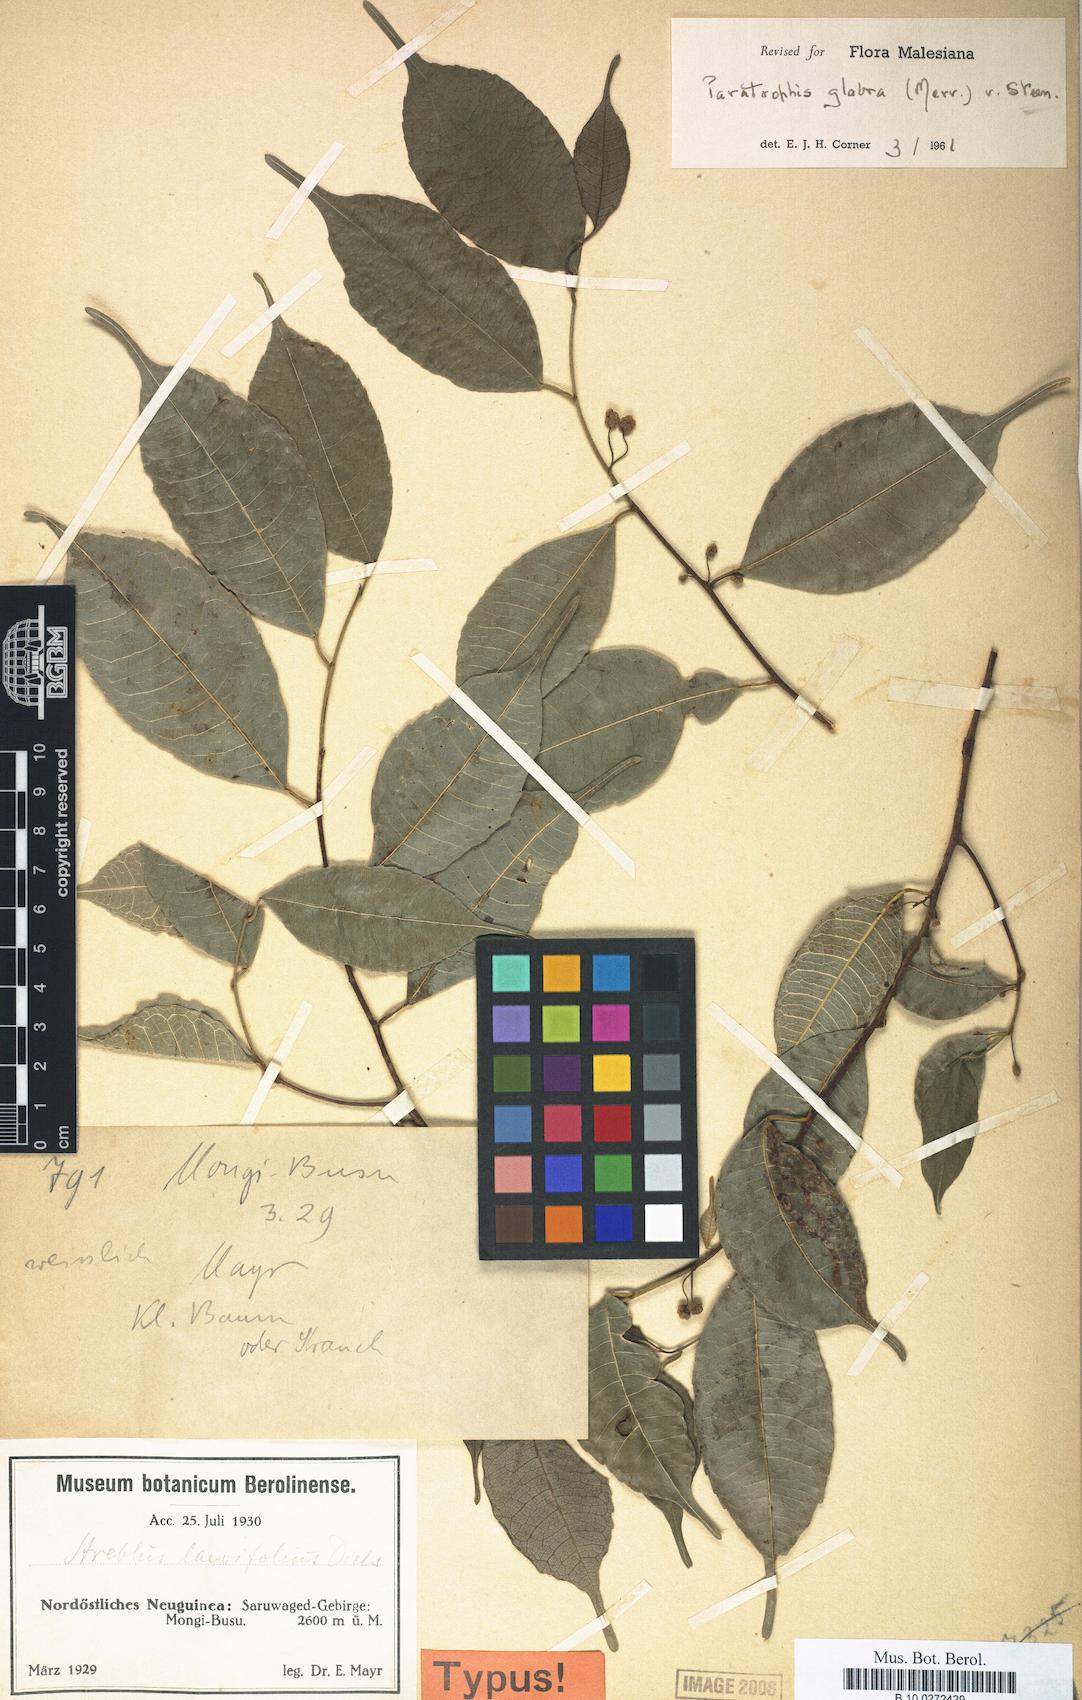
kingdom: Plantae
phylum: Tracheophyta
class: Magnoliopsida
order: Rosales
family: Moraceae
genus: Paratrophis
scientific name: Paratrophis glabra
